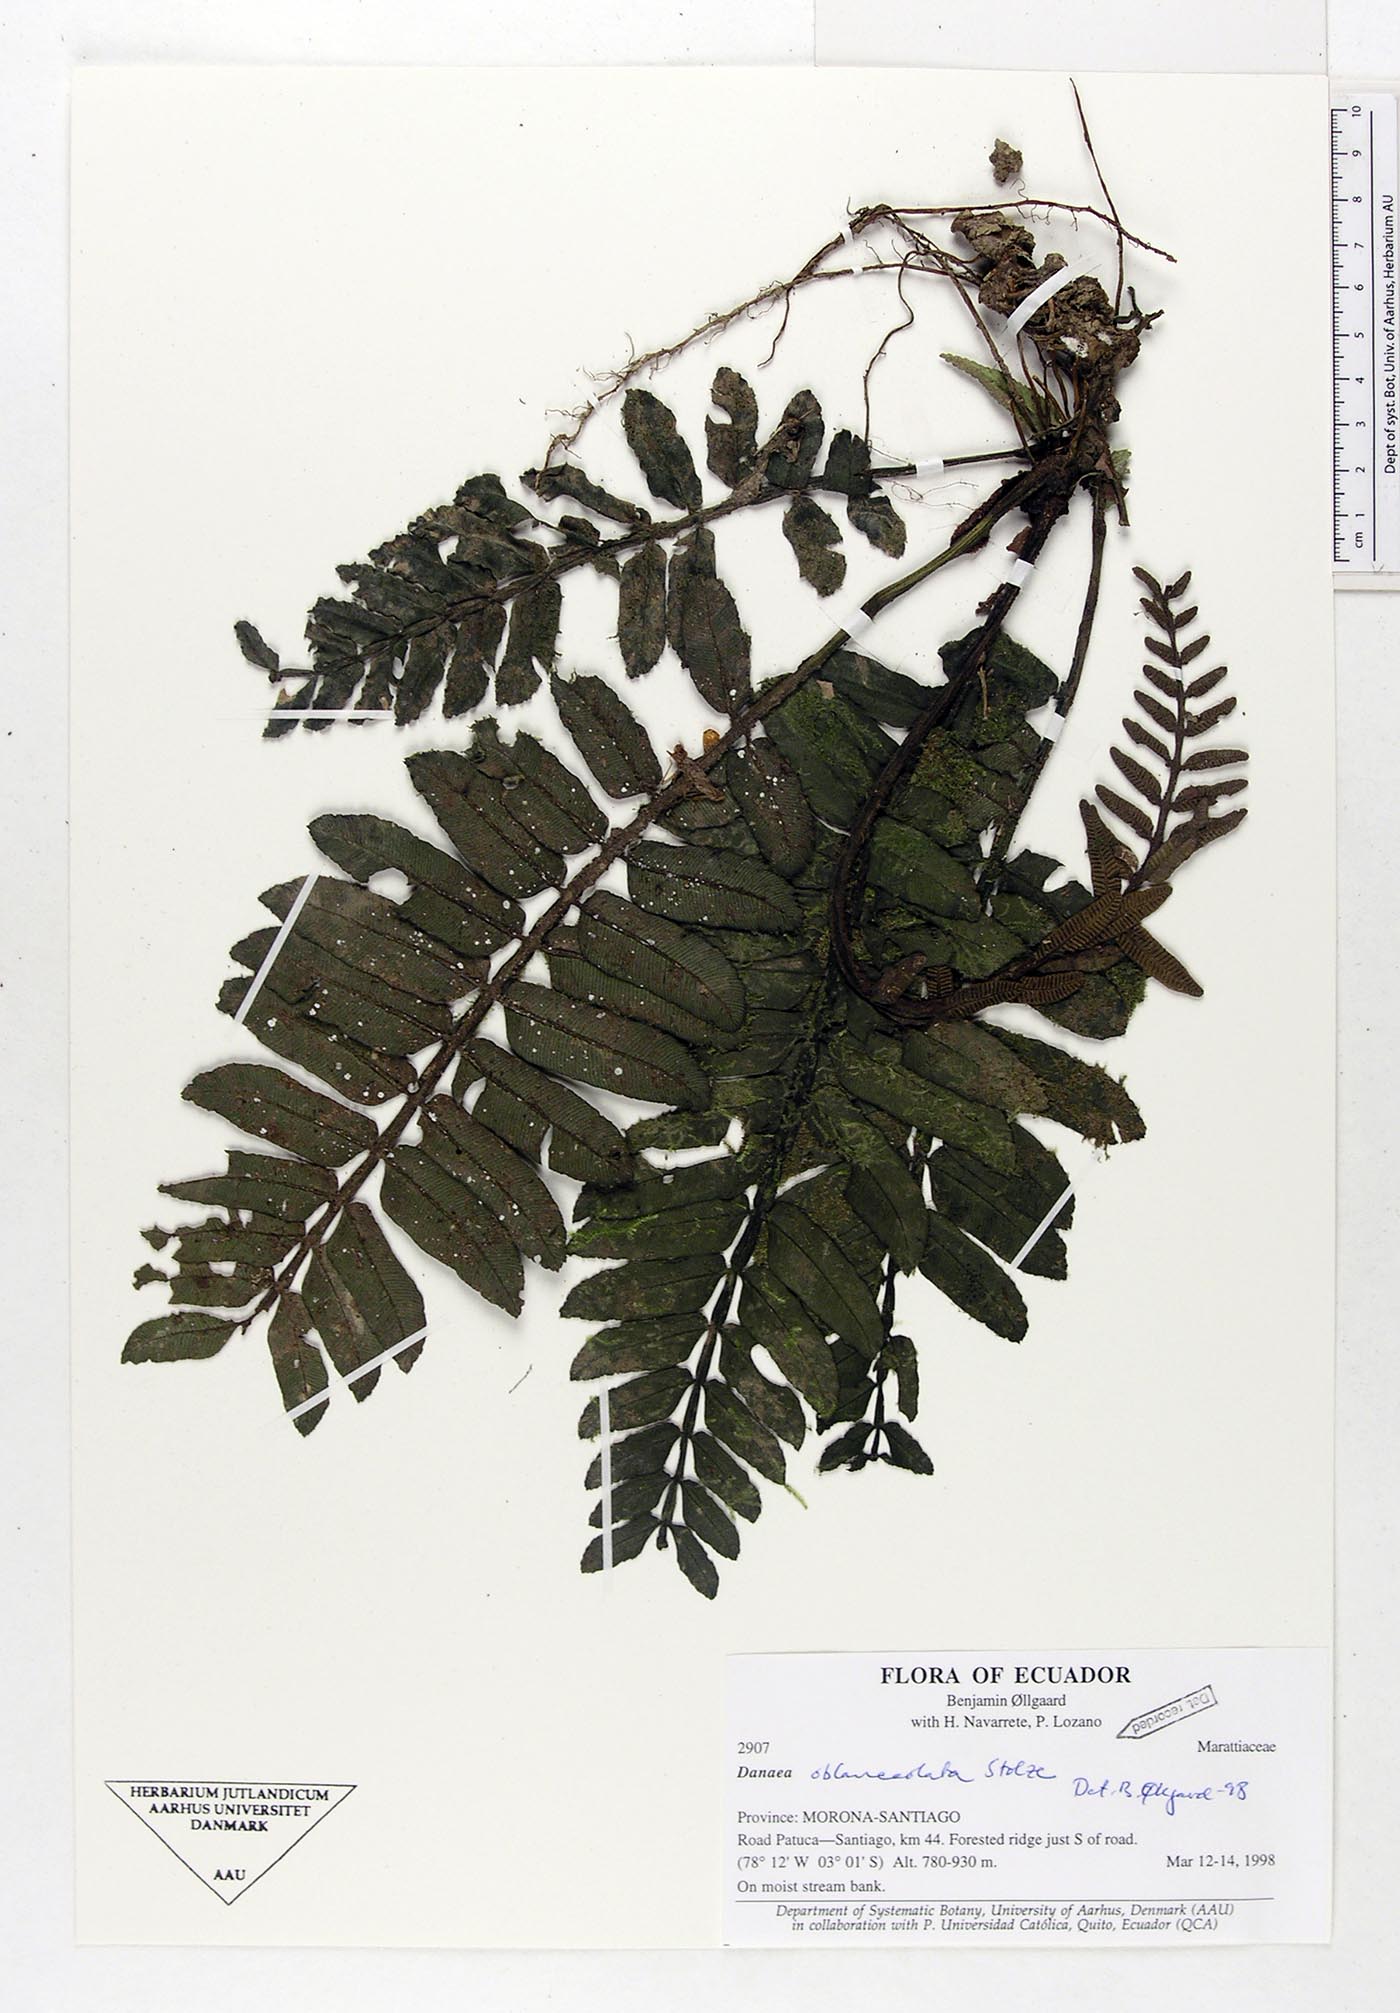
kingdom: Plantae
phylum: Tracheophyta
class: Polypodiopsida
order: Marattiales
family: Marattiaceae
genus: Danaea
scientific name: Danaea oblanceolata
